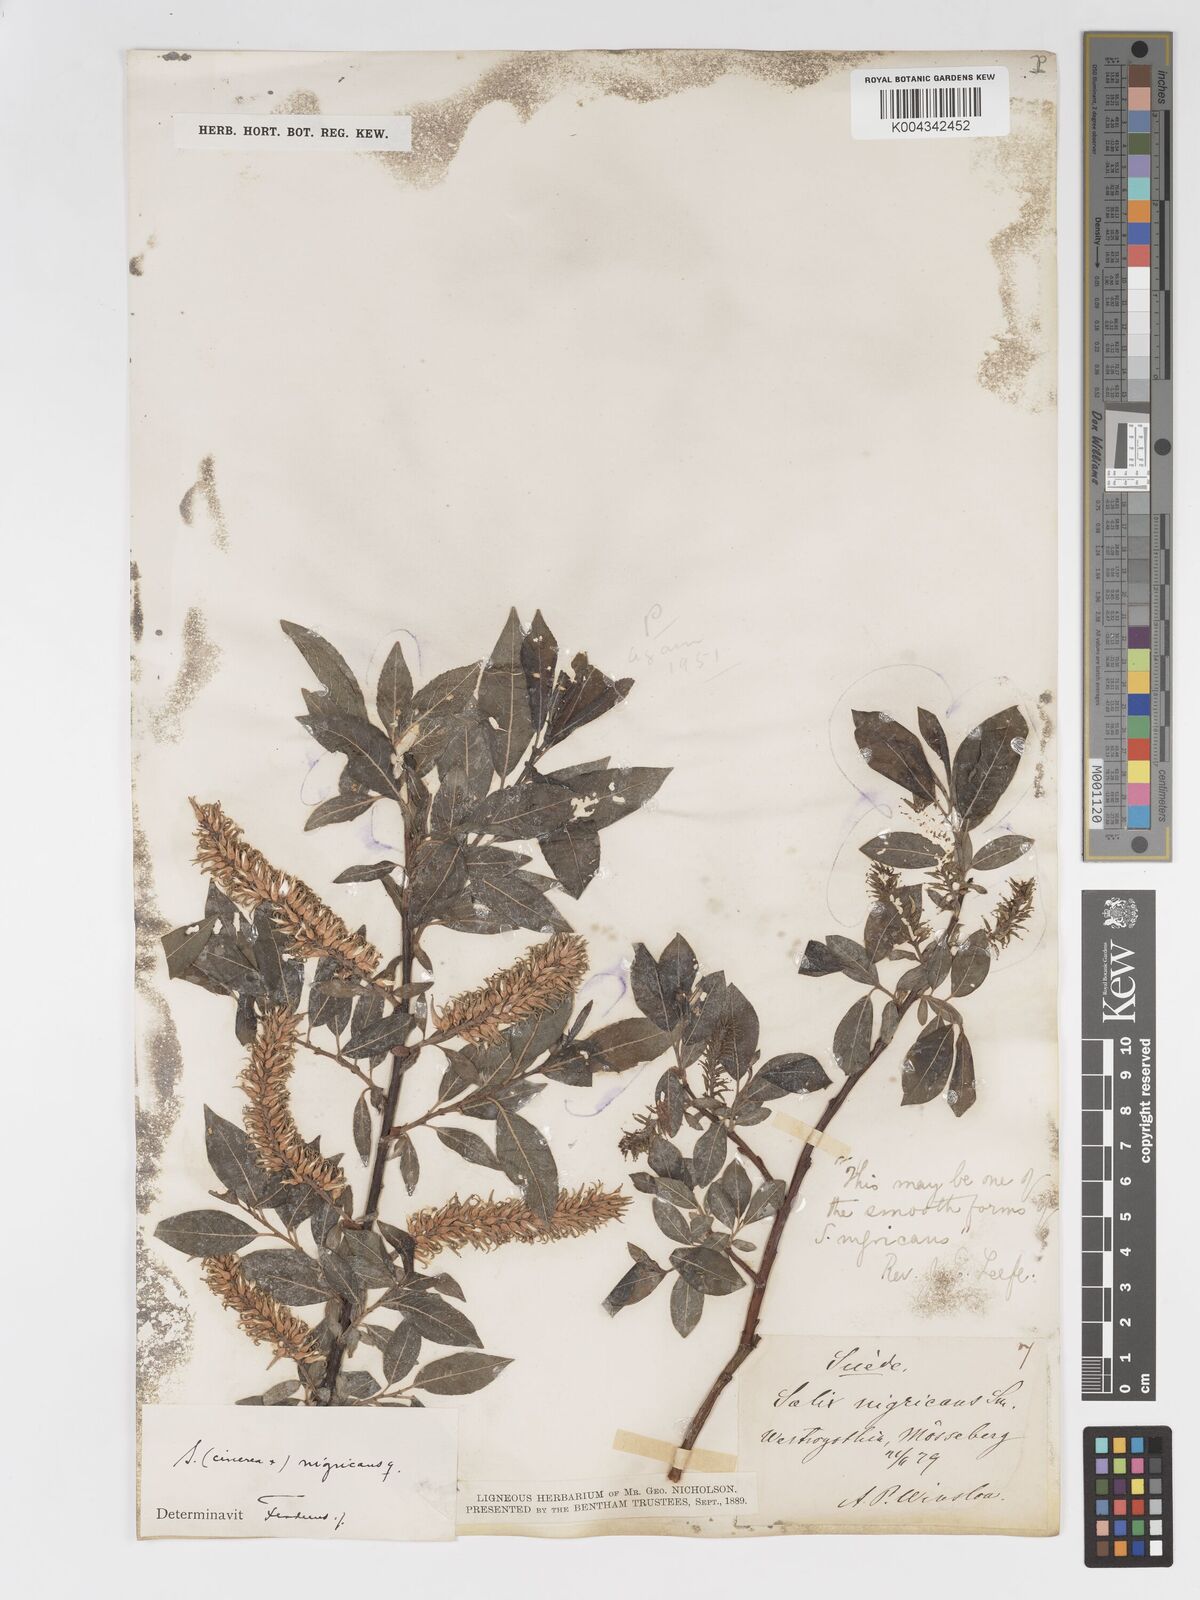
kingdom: Plantae
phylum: Tracheophyta
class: Magnoliopsida
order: Malpighiales
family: Salicaceae
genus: Salix
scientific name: Salix
